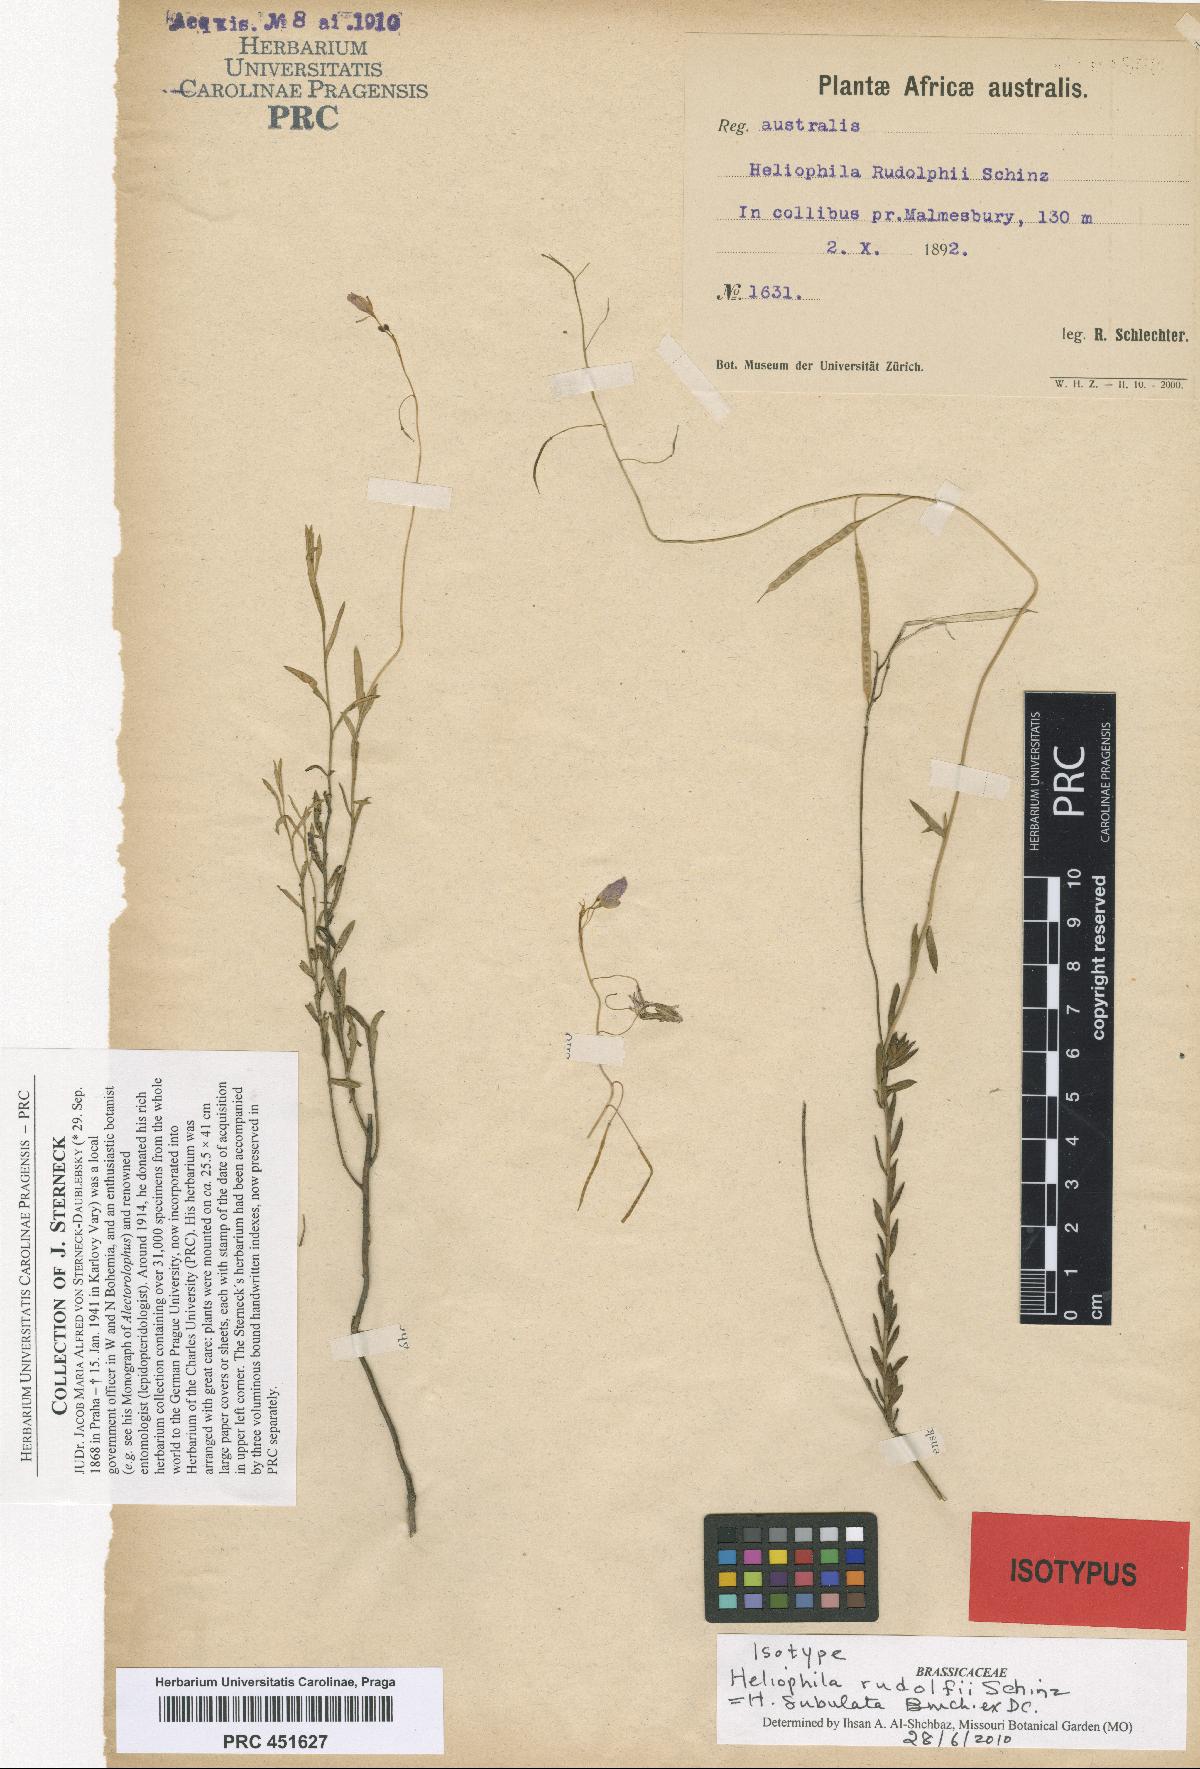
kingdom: Plantae
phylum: Tracheophyta
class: Magnoliopsida
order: Brassicales
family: Brassicaceae
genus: Heliophila
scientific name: Heliophila subulata
